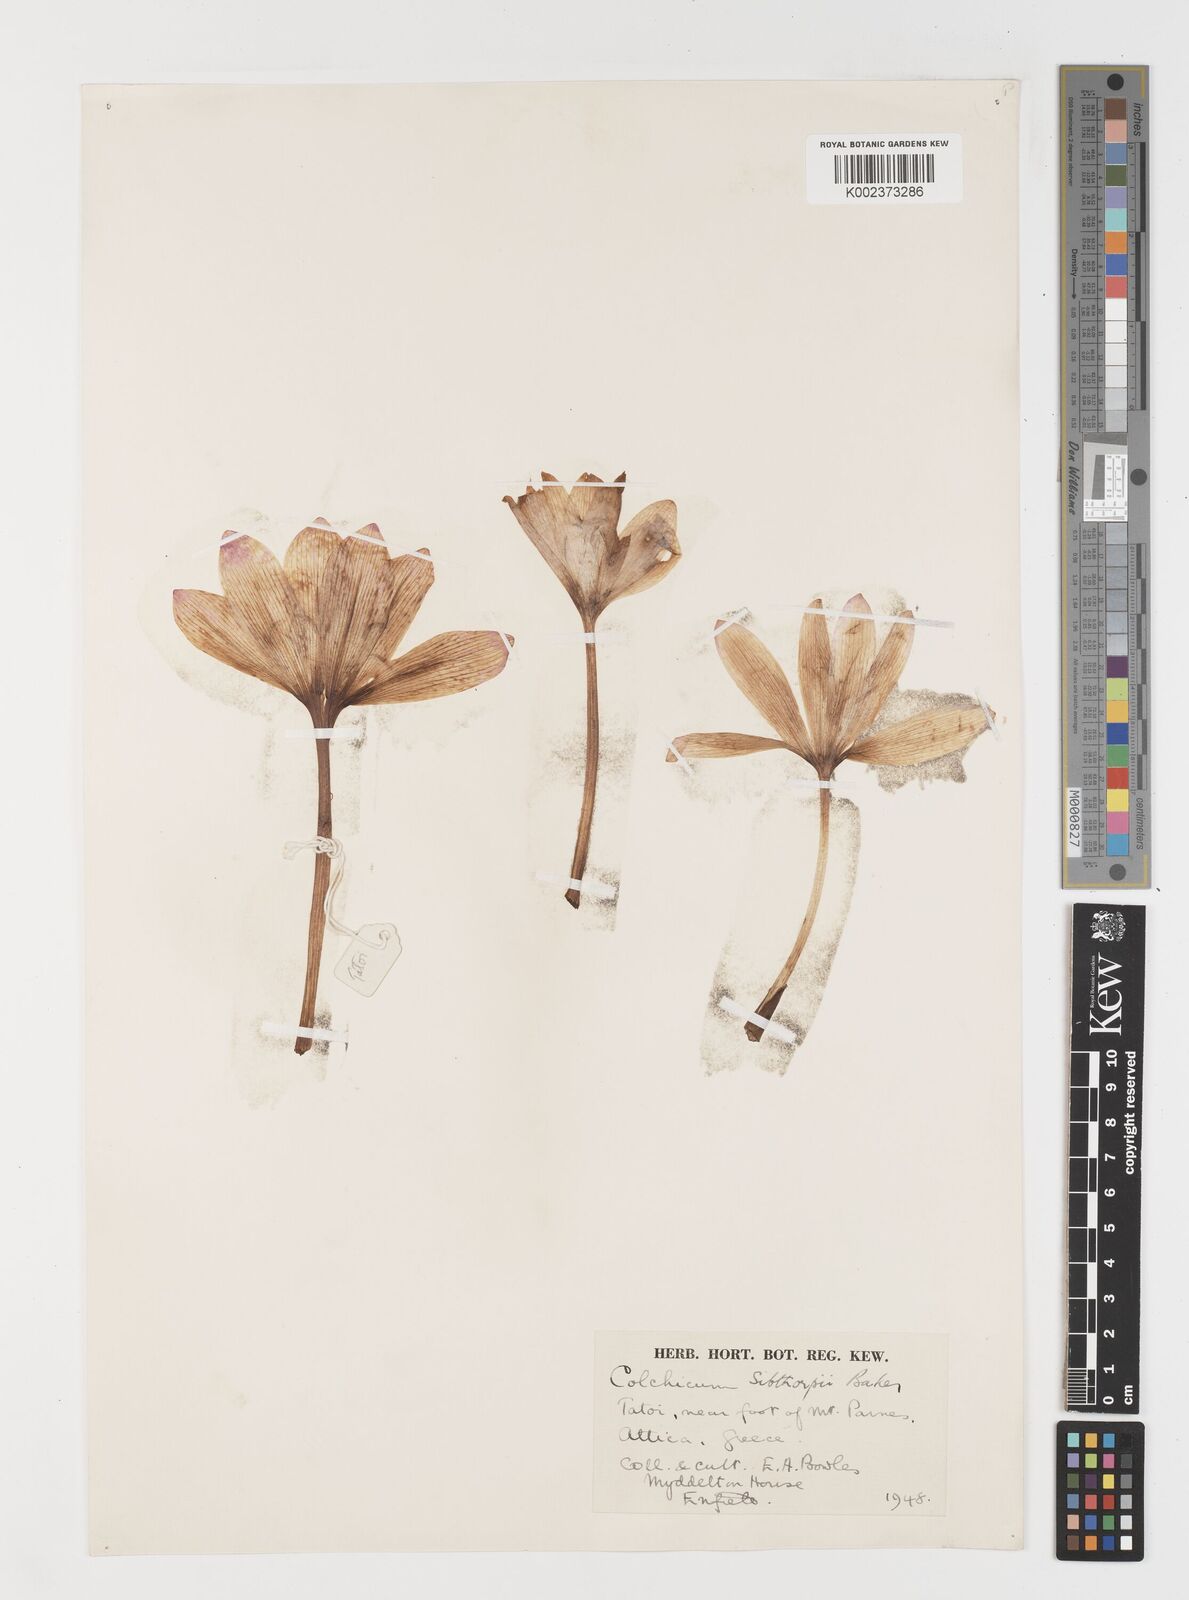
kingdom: Plantae
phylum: Tracheophyta
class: Liliopsida
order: Liliales
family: Colchicaceae
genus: Colchicum
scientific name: Colchicum bivonae
